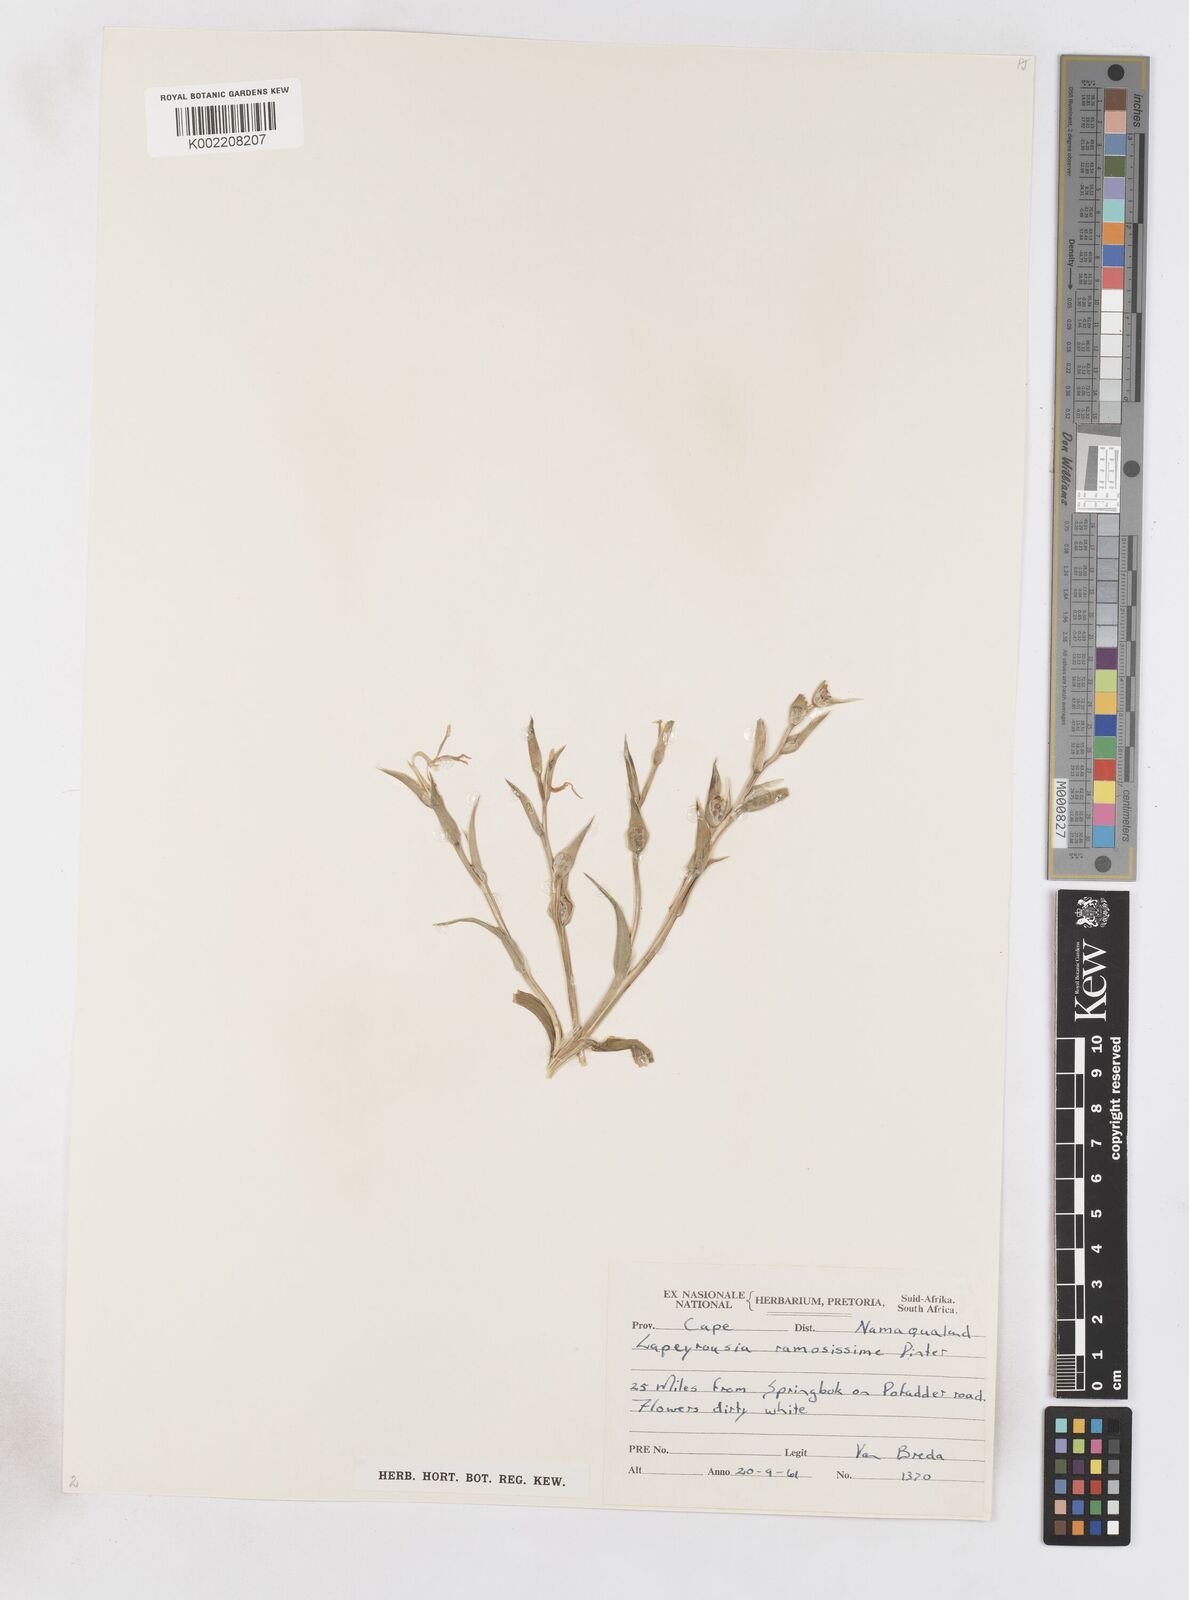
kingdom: Plantae
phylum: Tracheophyta
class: Liliopsida
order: Asparagales
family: Iridaceae
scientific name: Iridaceae
